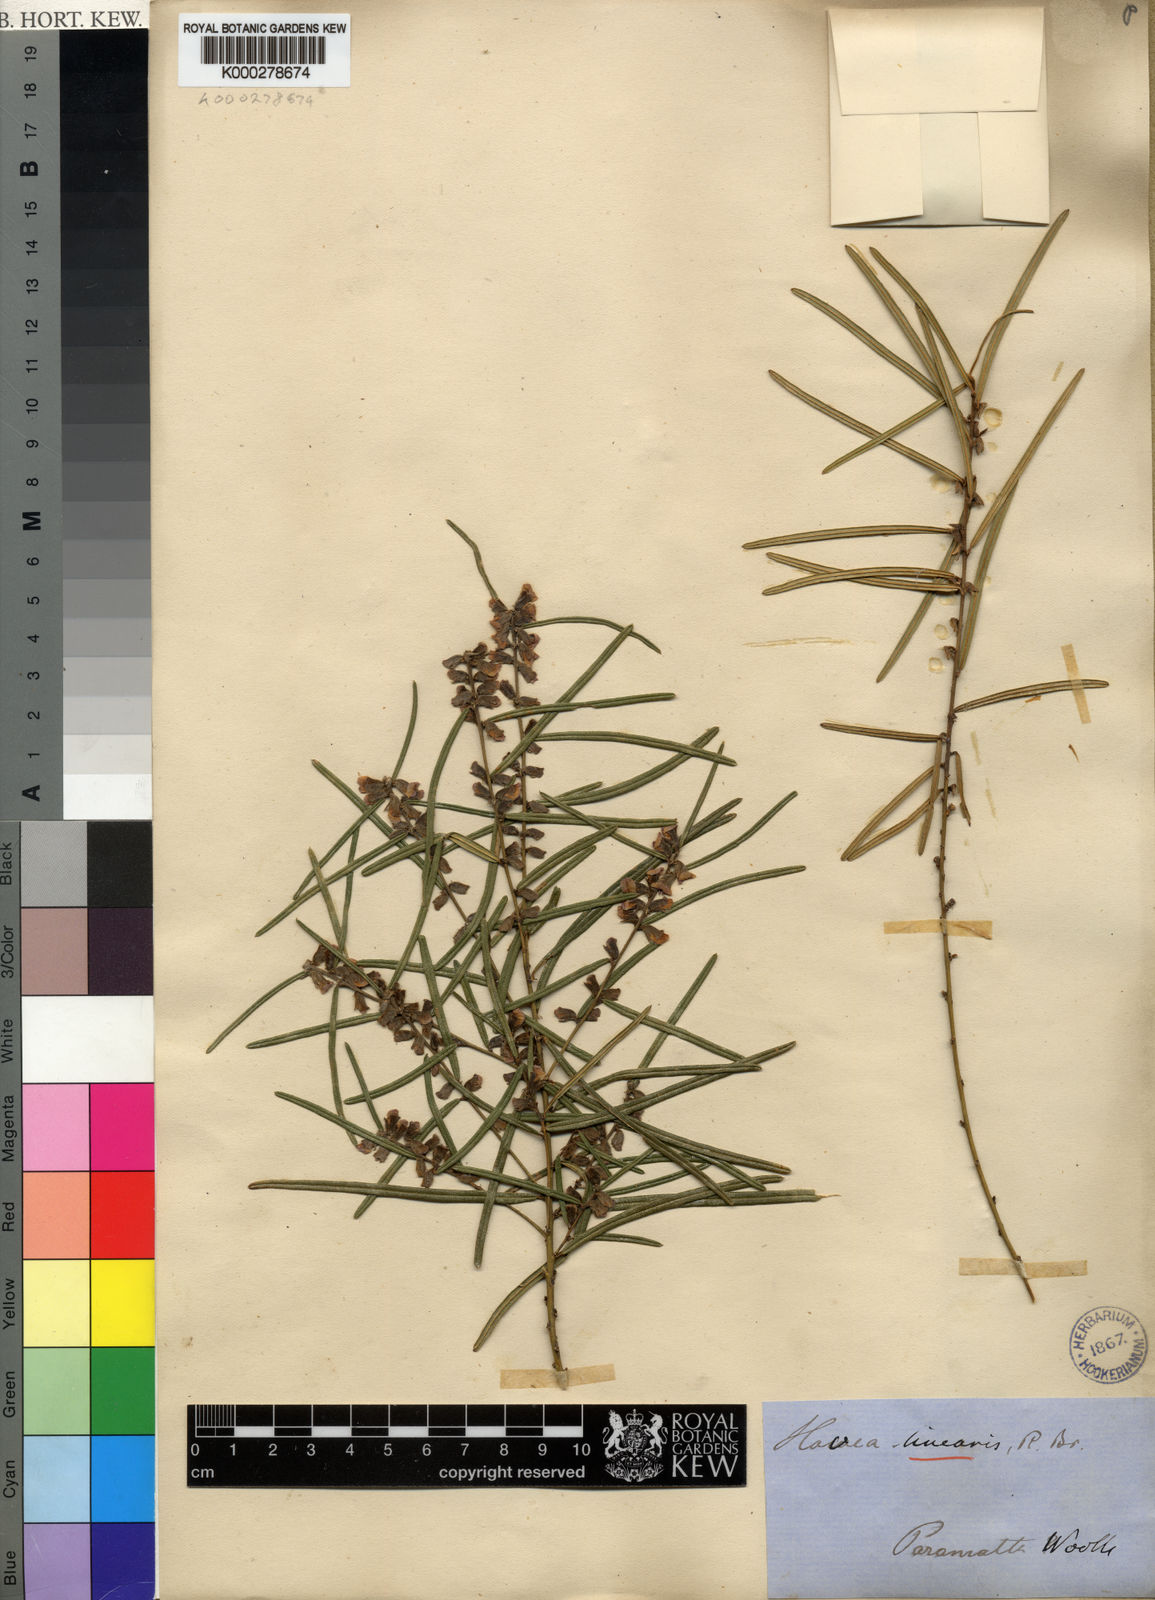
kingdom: Plantae
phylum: Tracheophyta
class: Magnoliopsida
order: Fabales
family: Fabaceae
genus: Hovea
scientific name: Hovea linearis
